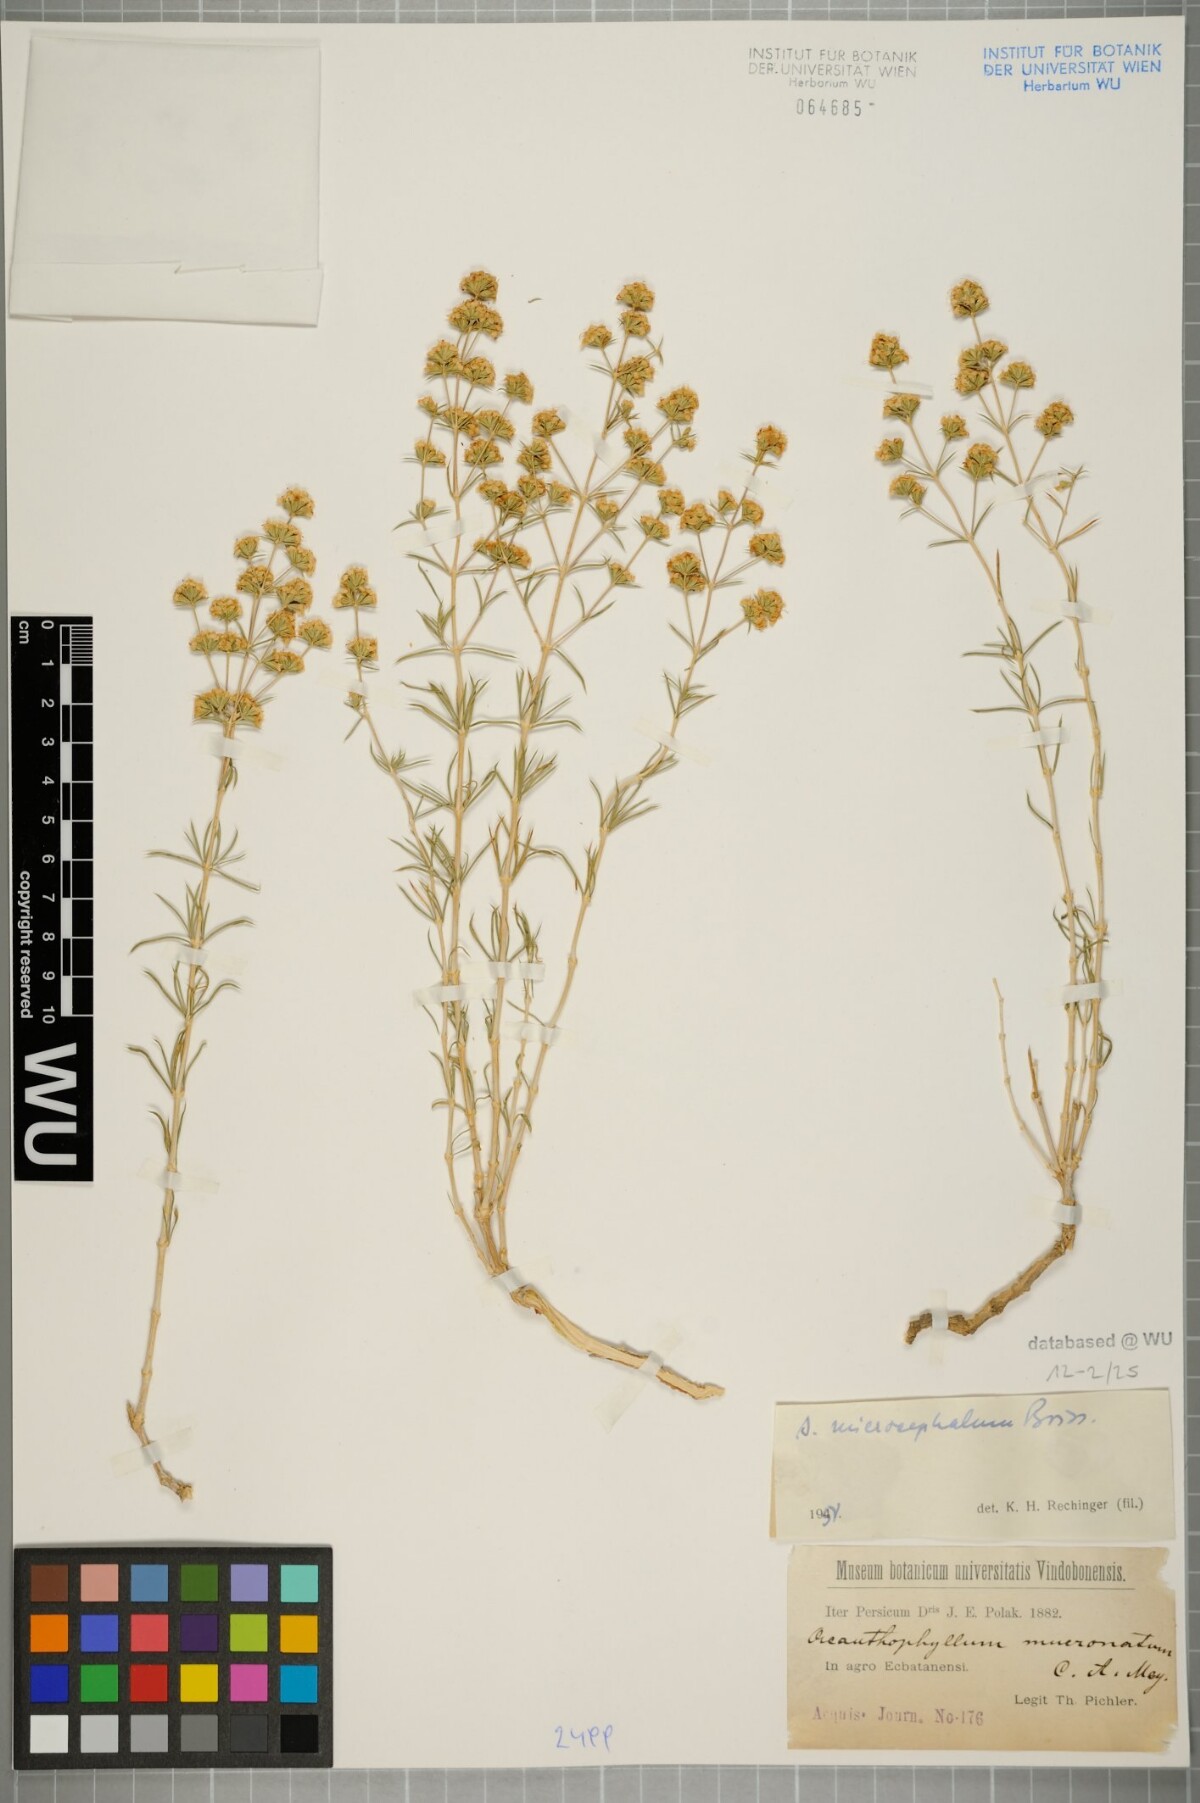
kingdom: Plantae
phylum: Tracheophyta
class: Magnoliopsida
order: Caryophyllales
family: Caryophyllaceae
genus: Acanthophyllum
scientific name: Acanthophyllum microcephalum
